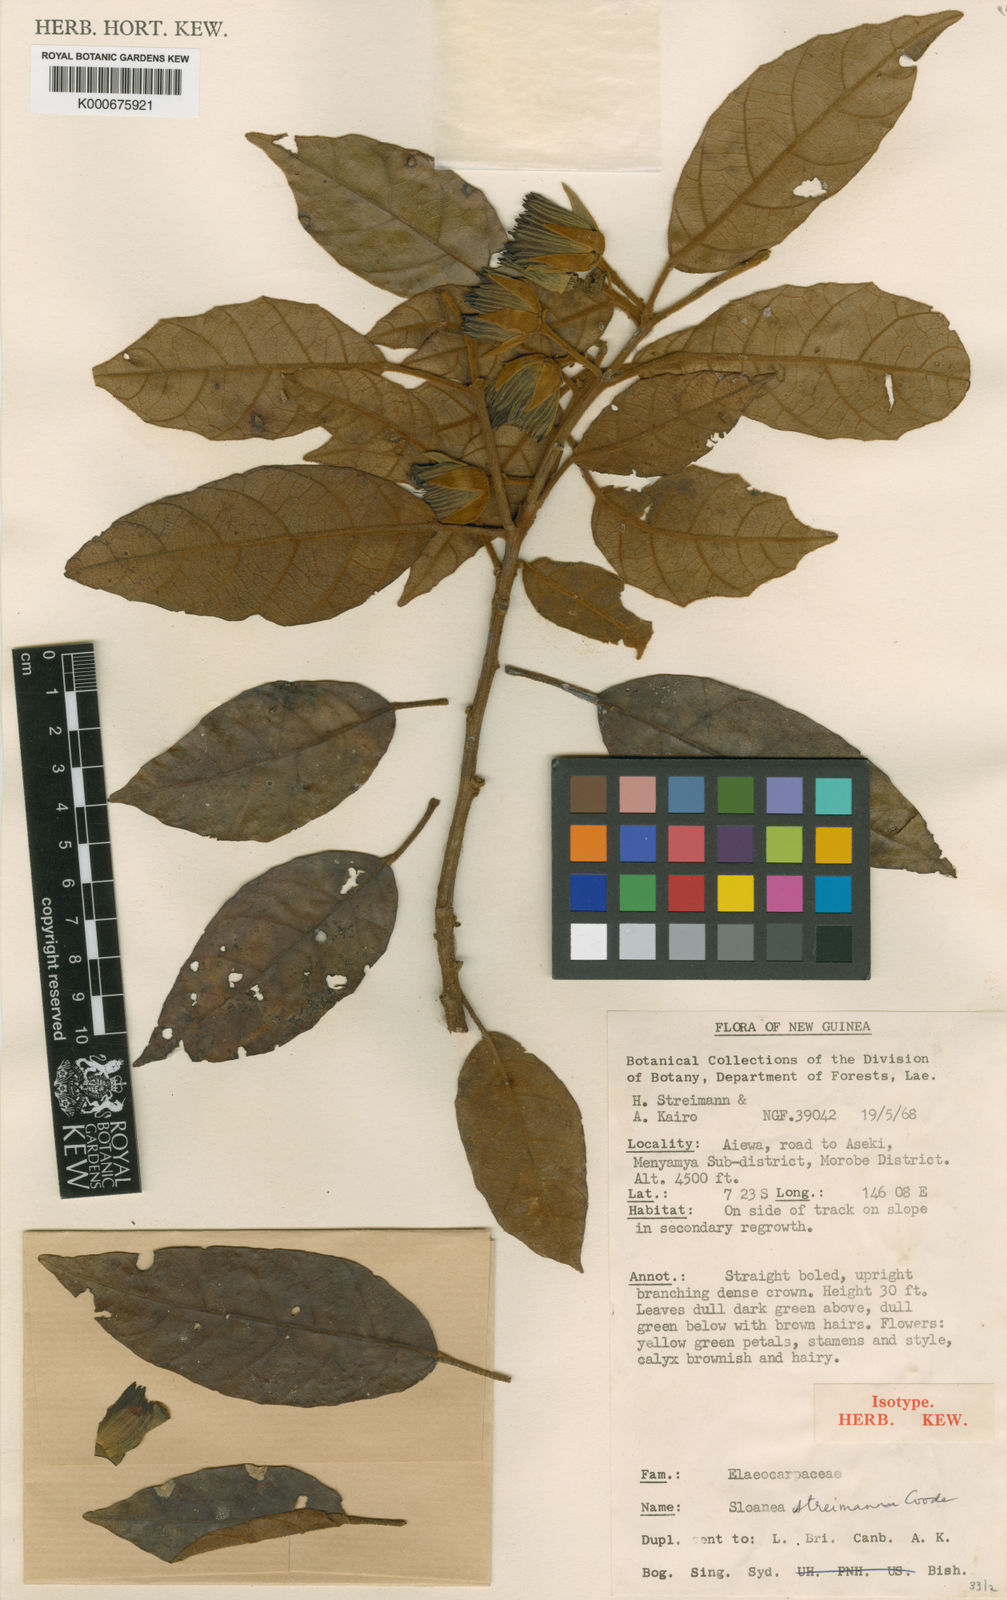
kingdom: Plantae
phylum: Tracheophyta
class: Magnoliopsida
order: Oxalidales
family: Elaeocarpaceae
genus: Sloanea
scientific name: Sloanea streimannii
